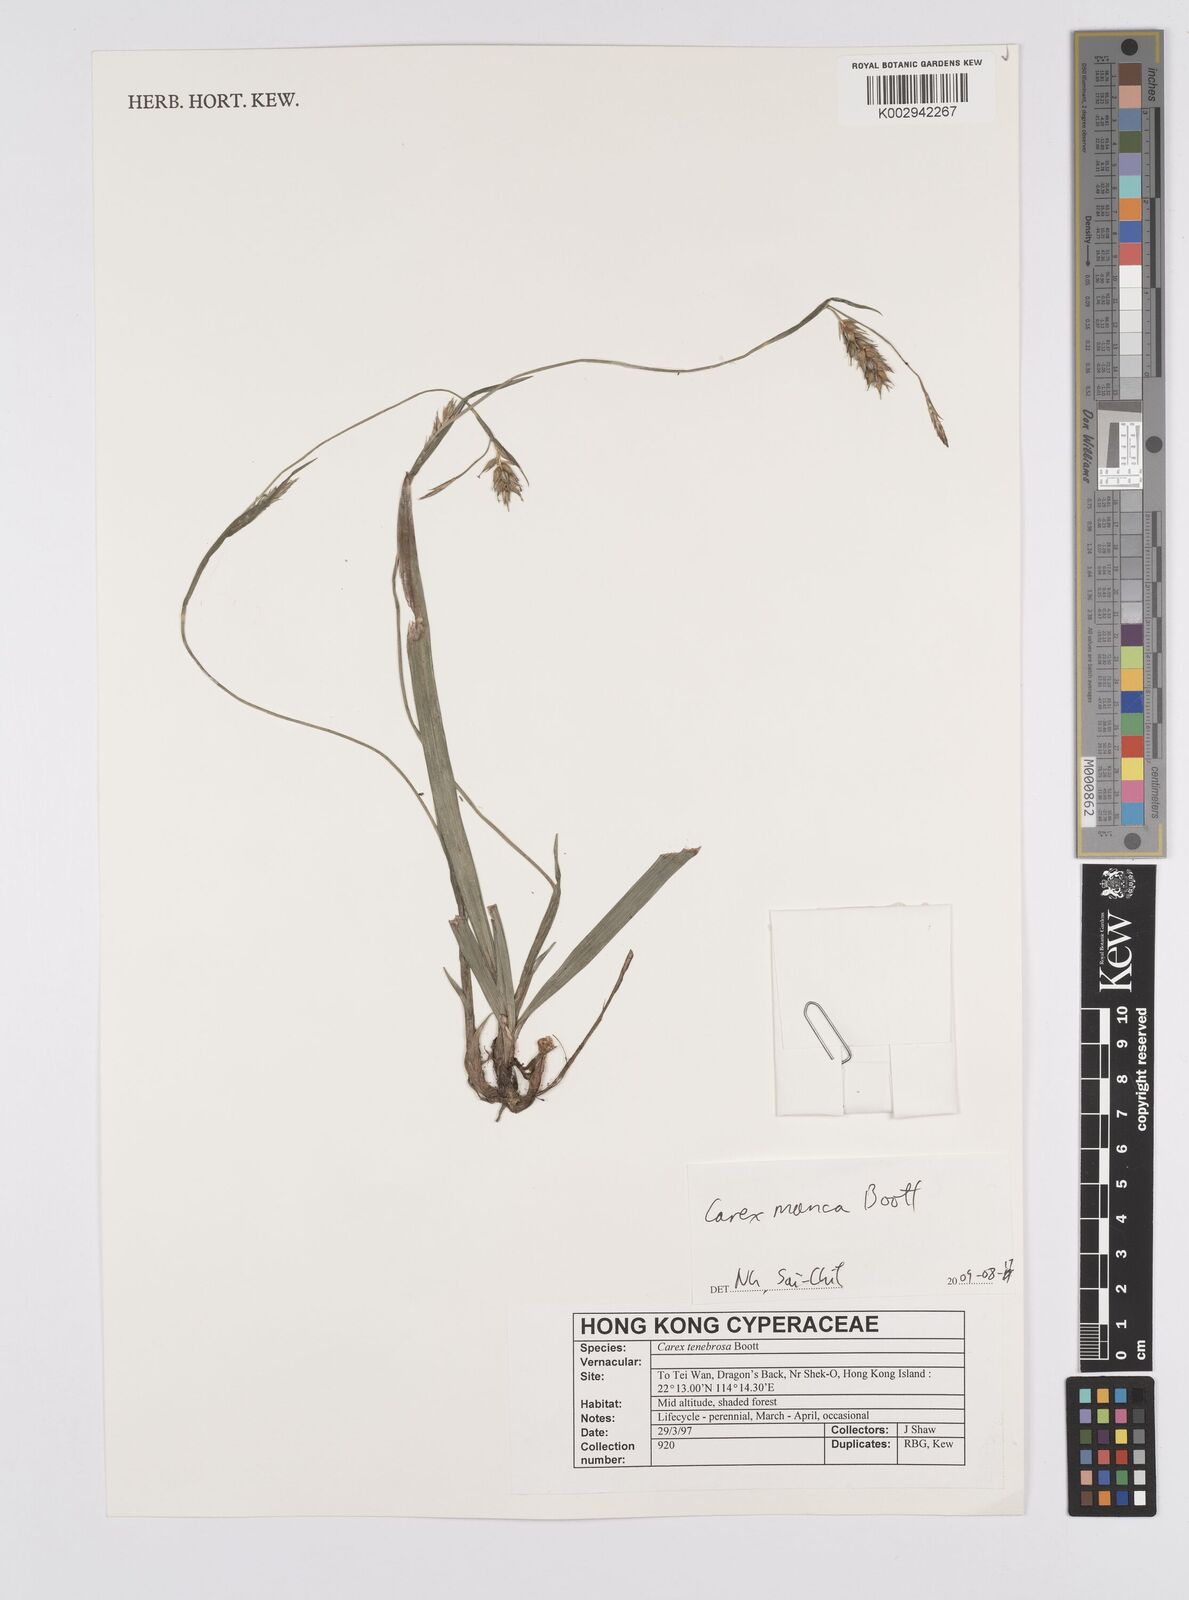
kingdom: Plantae
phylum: Tracheophyta
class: Liliopsida
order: Poales
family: Cyperaceae
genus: Carex
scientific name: Carex manca
